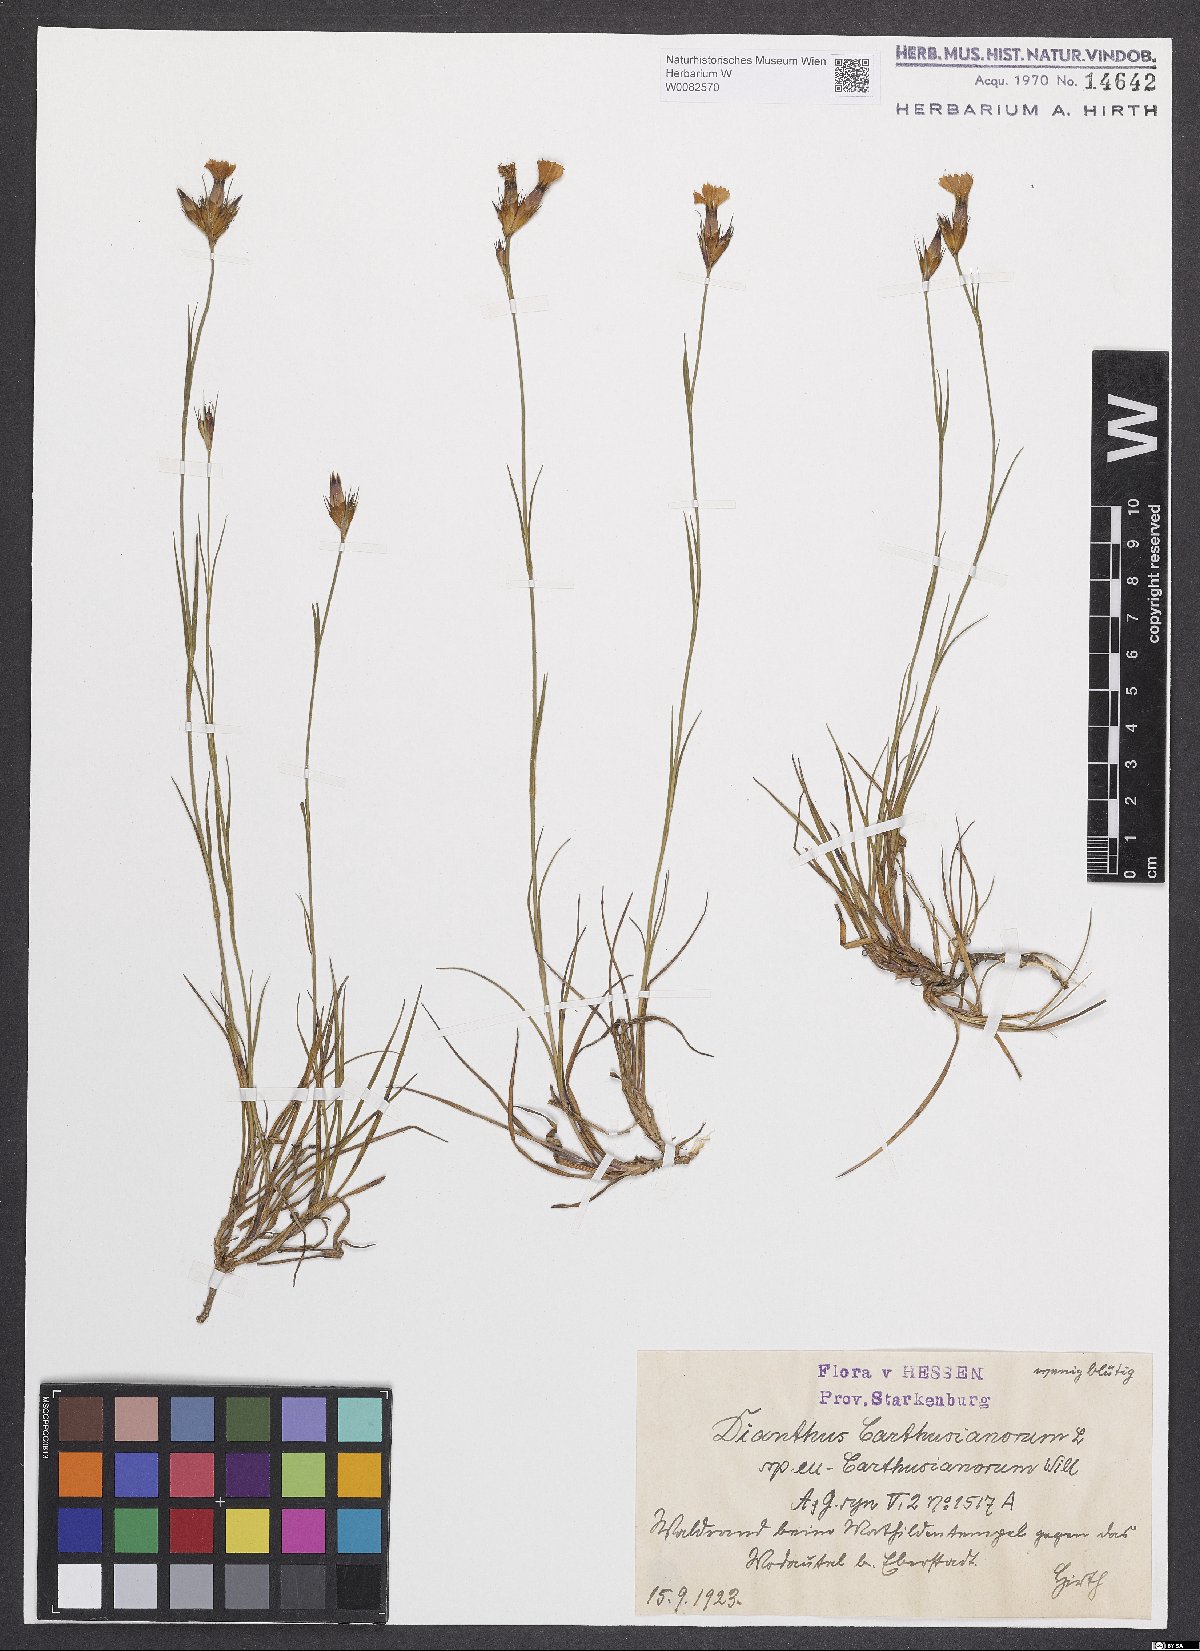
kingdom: Plantae
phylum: Tracheophyta
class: Magnoliopsida
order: Caryophyllales
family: Caryophyllaceae
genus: Dianthus
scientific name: Dianthus carthusianorum
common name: Carthusian pink
